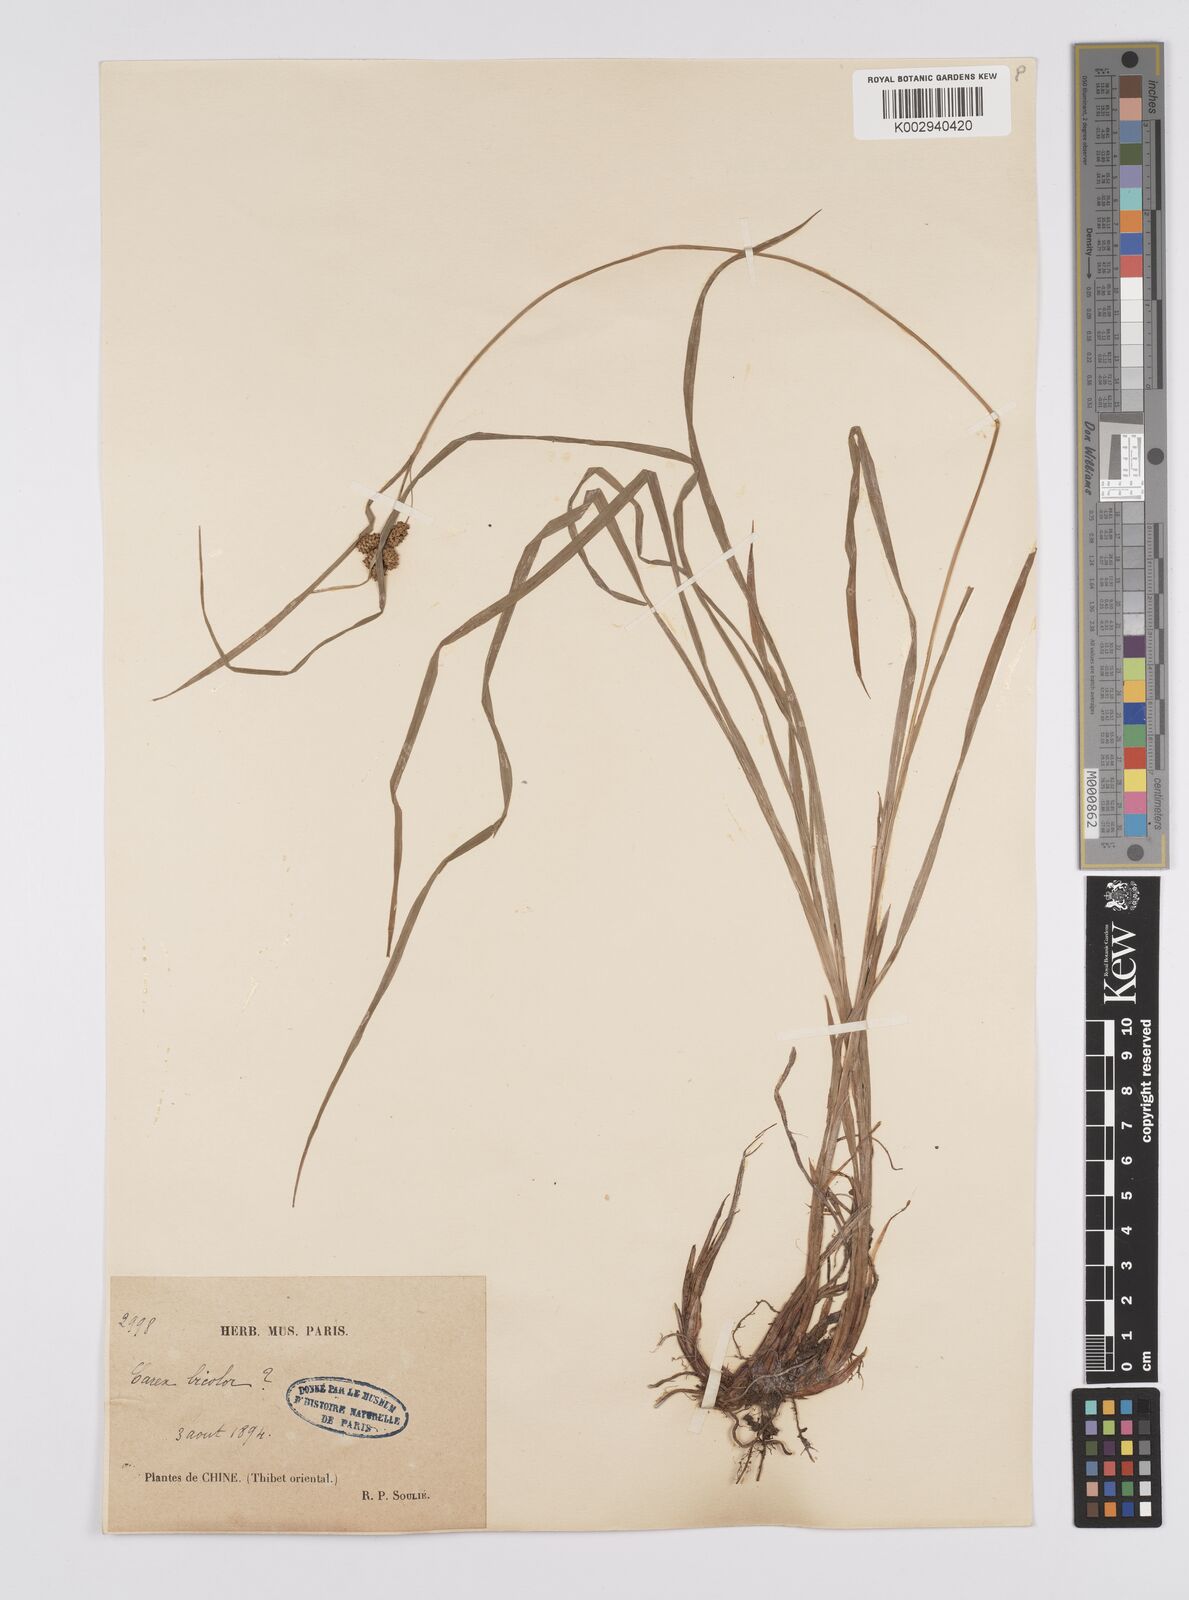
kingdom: Plantae
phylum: Tracheophyta
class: Liliopsida
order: Poales
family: Cyperaceae
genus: Carex
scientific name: Carex lehmannii
